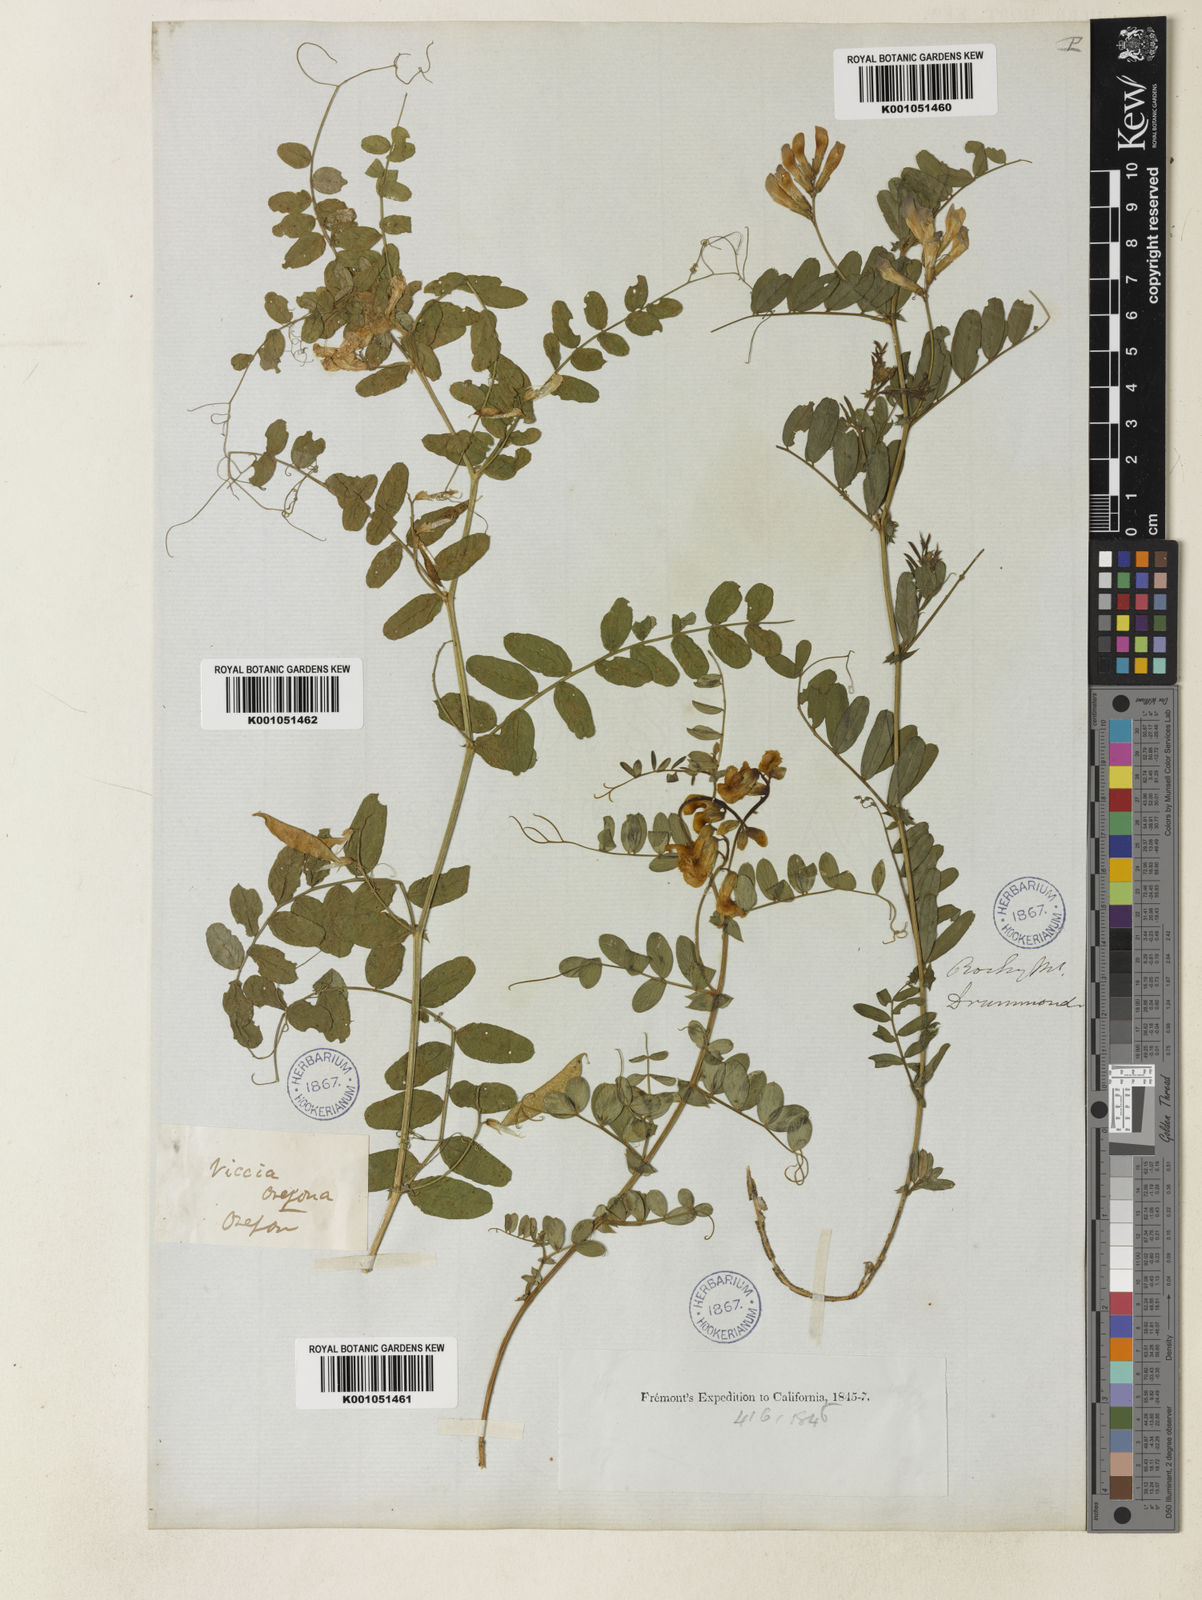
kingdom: Plantae
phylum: Tracheophyta
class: Magnoliopsida
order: Fabales
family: Fabaceae
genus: Vicia
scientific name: Vicia americana
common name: American vetch
